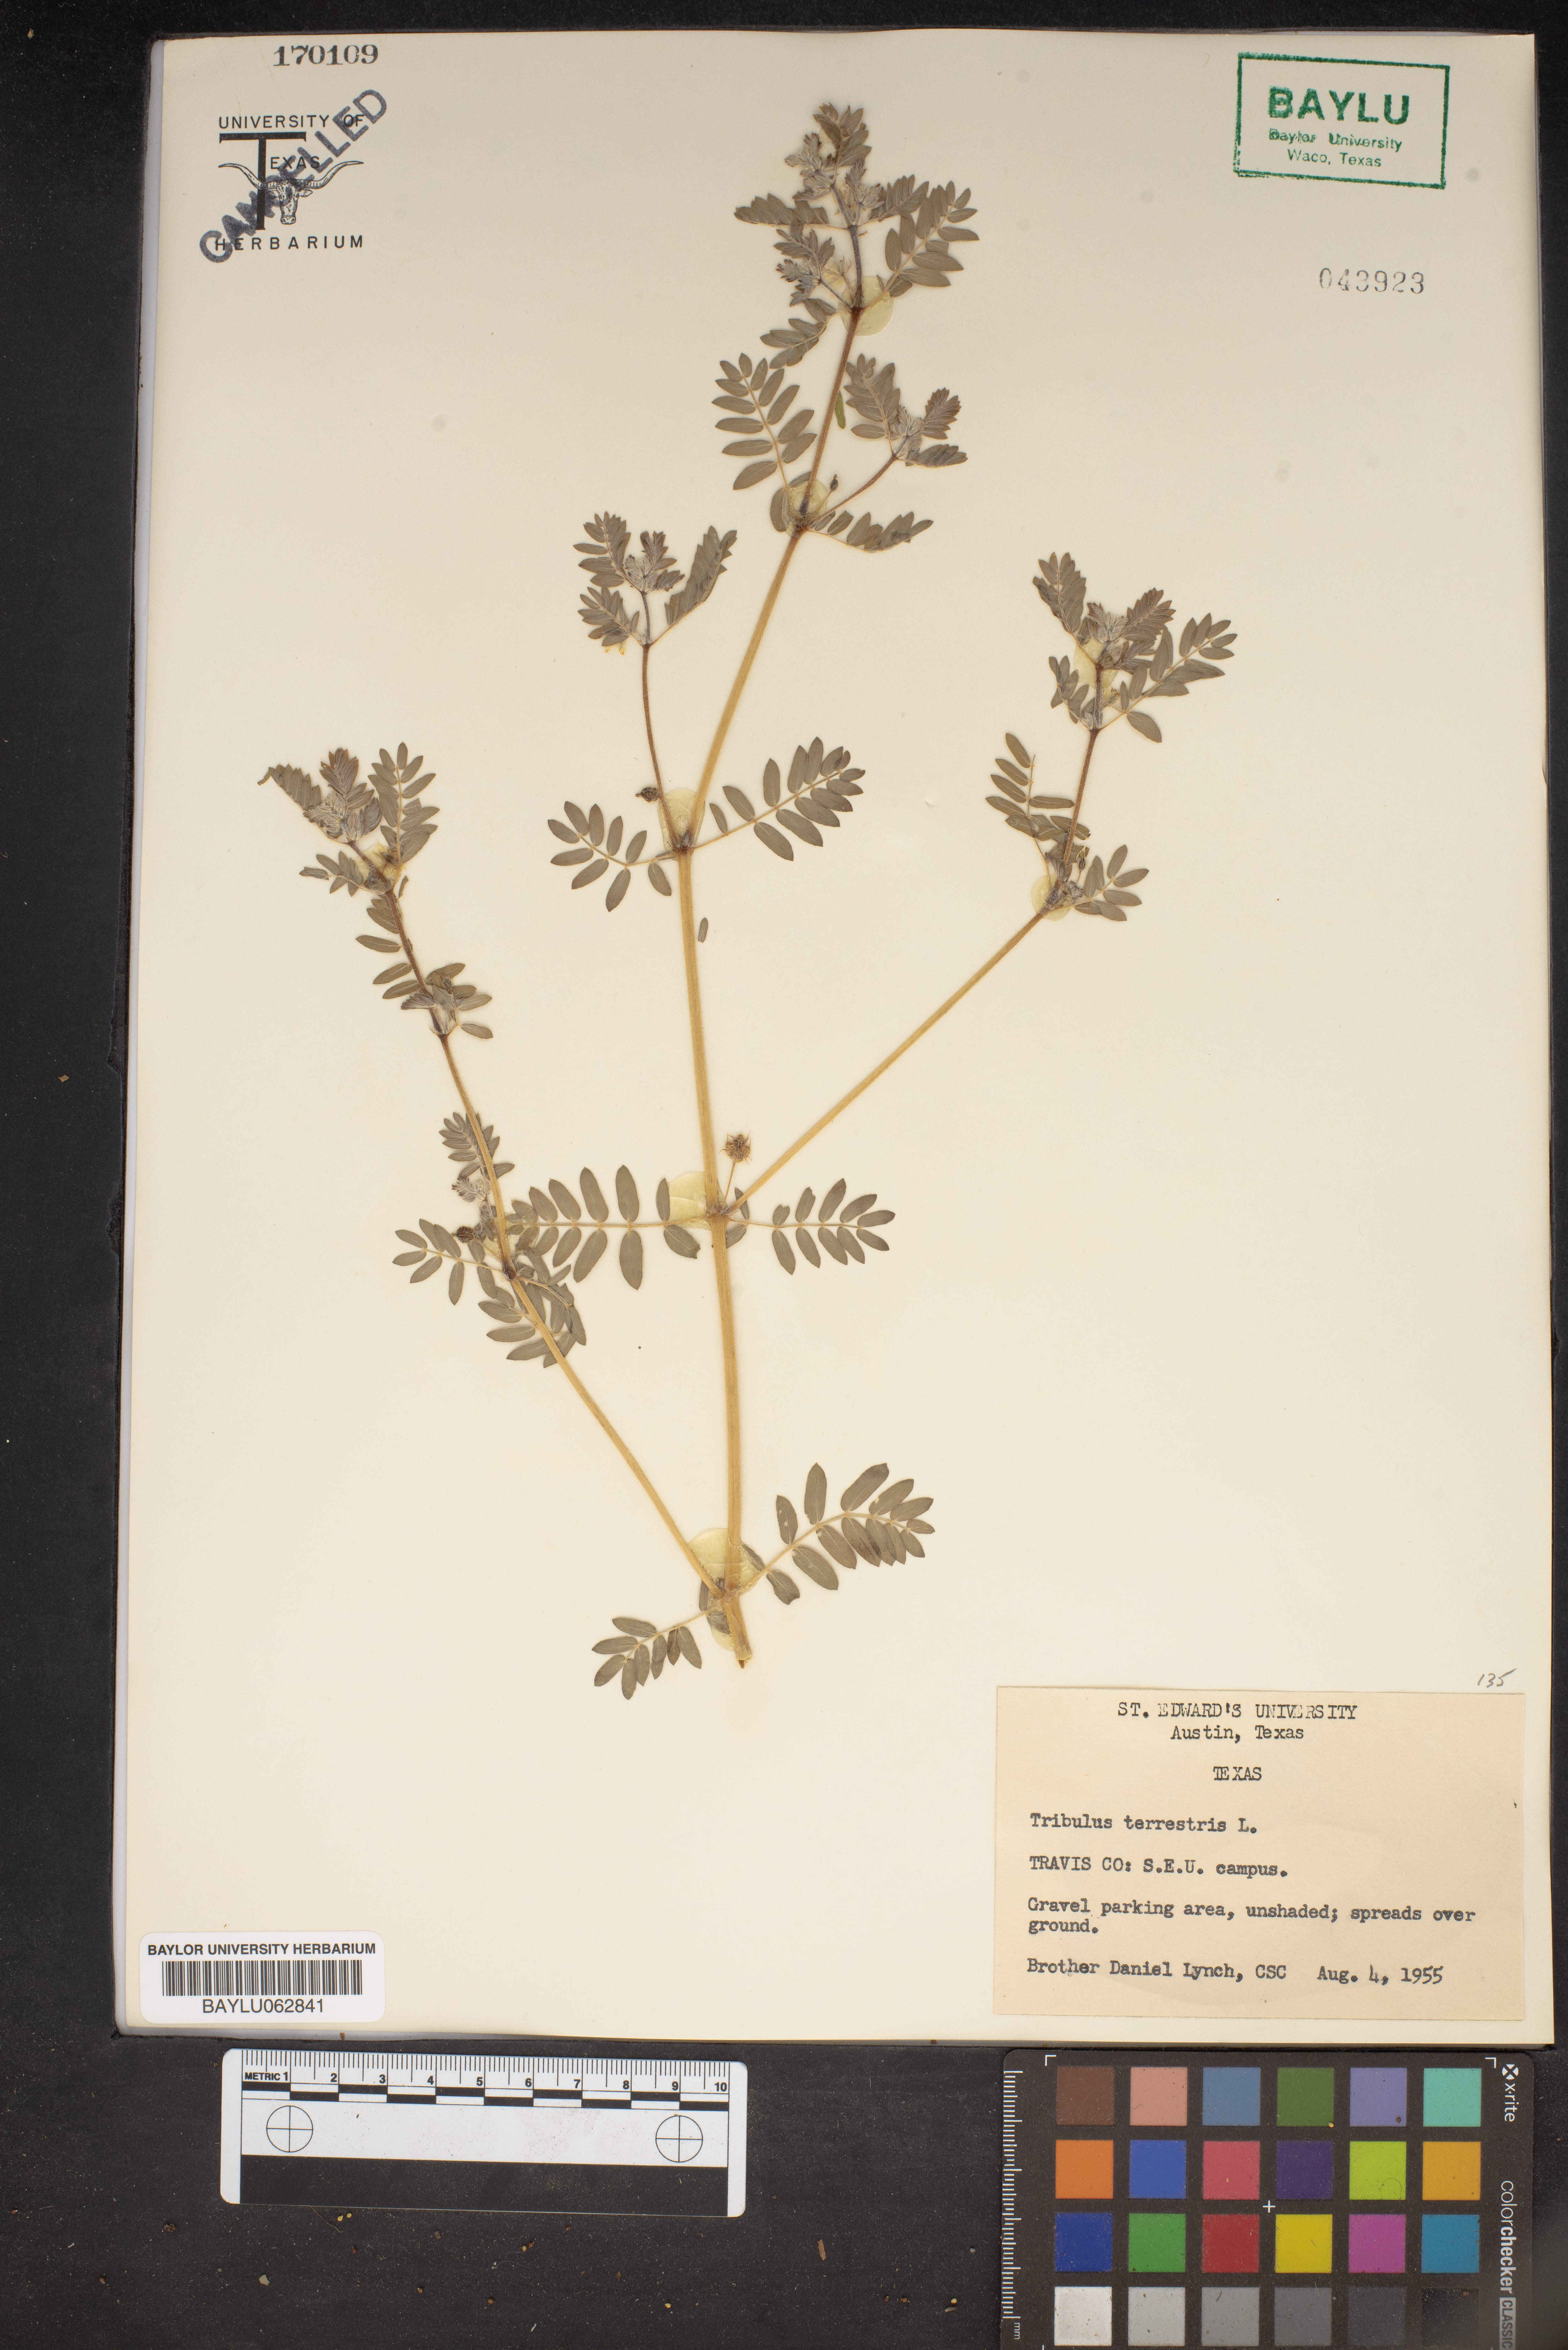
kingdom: Plantae
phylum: Tracheophyta
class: Magnoliopsida
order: Zygophyllales
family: Zygophyllaceae
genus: Tribulus
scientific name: Tribulus terrestris
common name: Puncturevine
